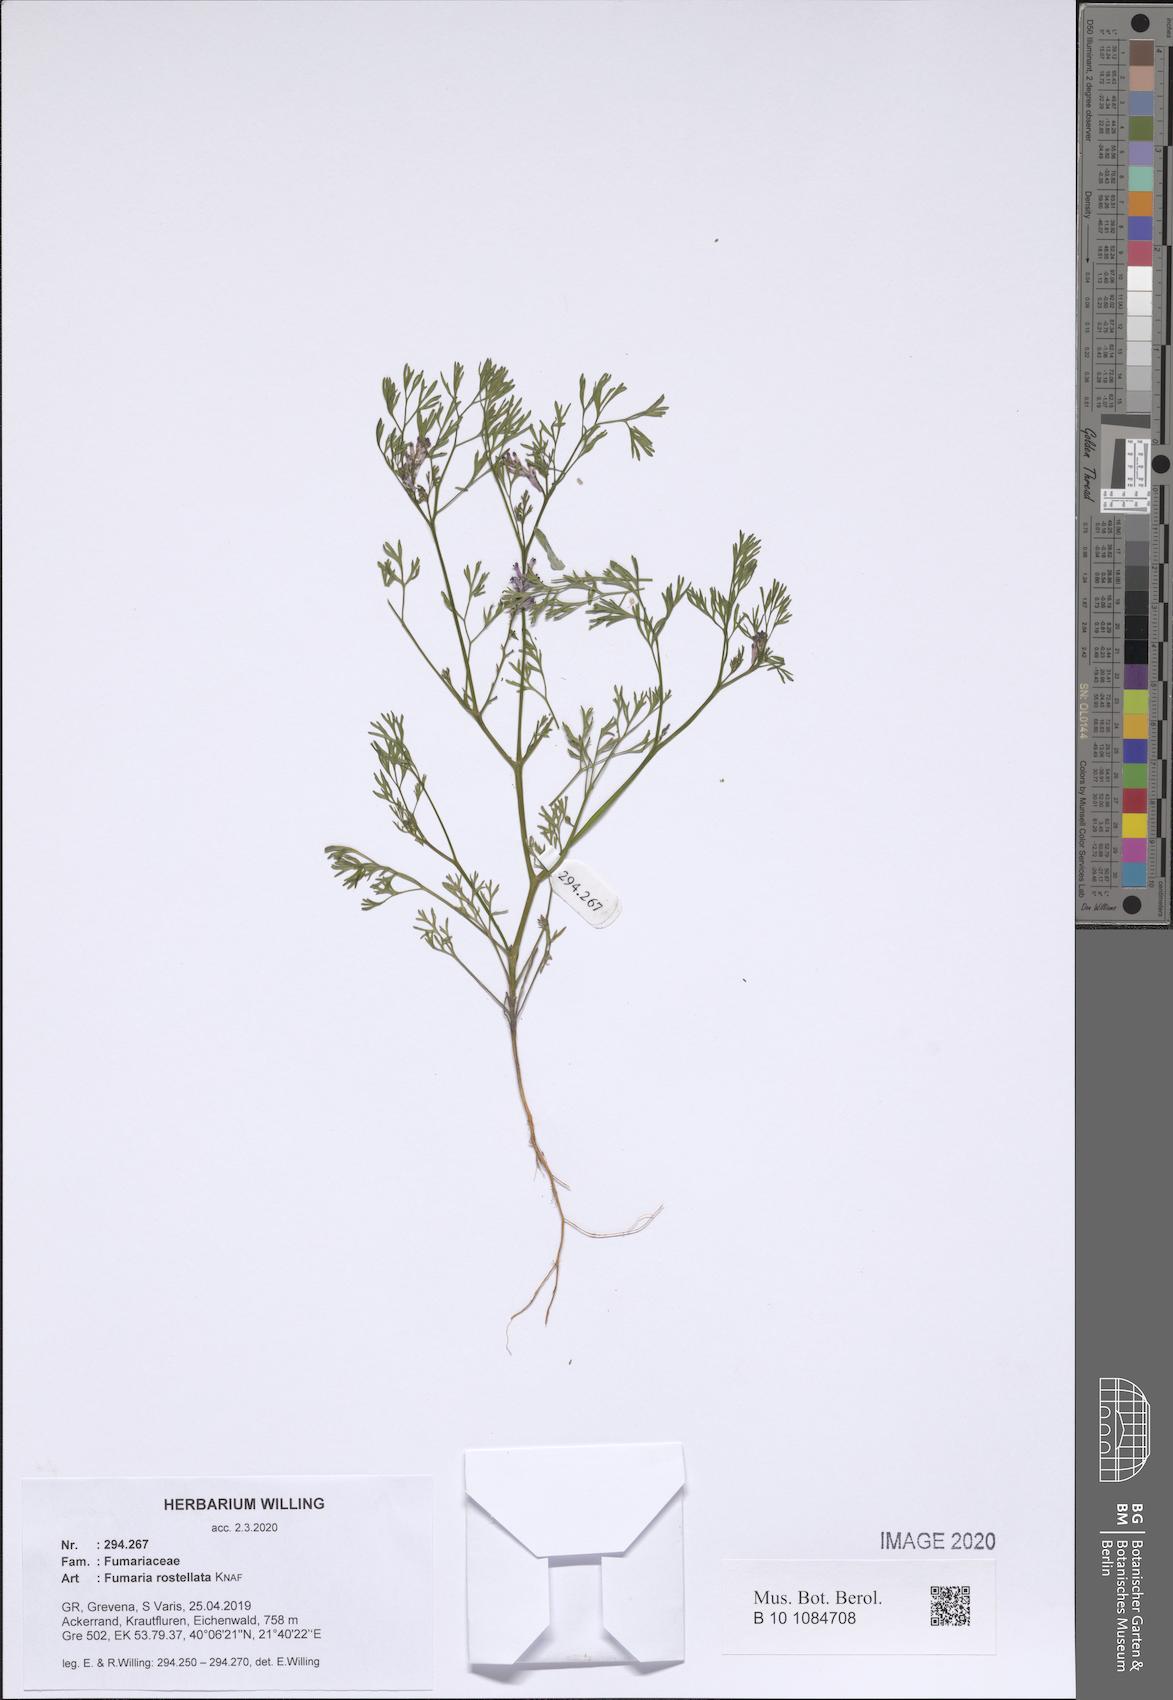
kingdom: Plantae
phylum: Tracheophyta
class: Magnoliopsida
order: Ranunculales
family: Papaveraceae
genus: Fumaria
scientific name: Fumaria rostellata
